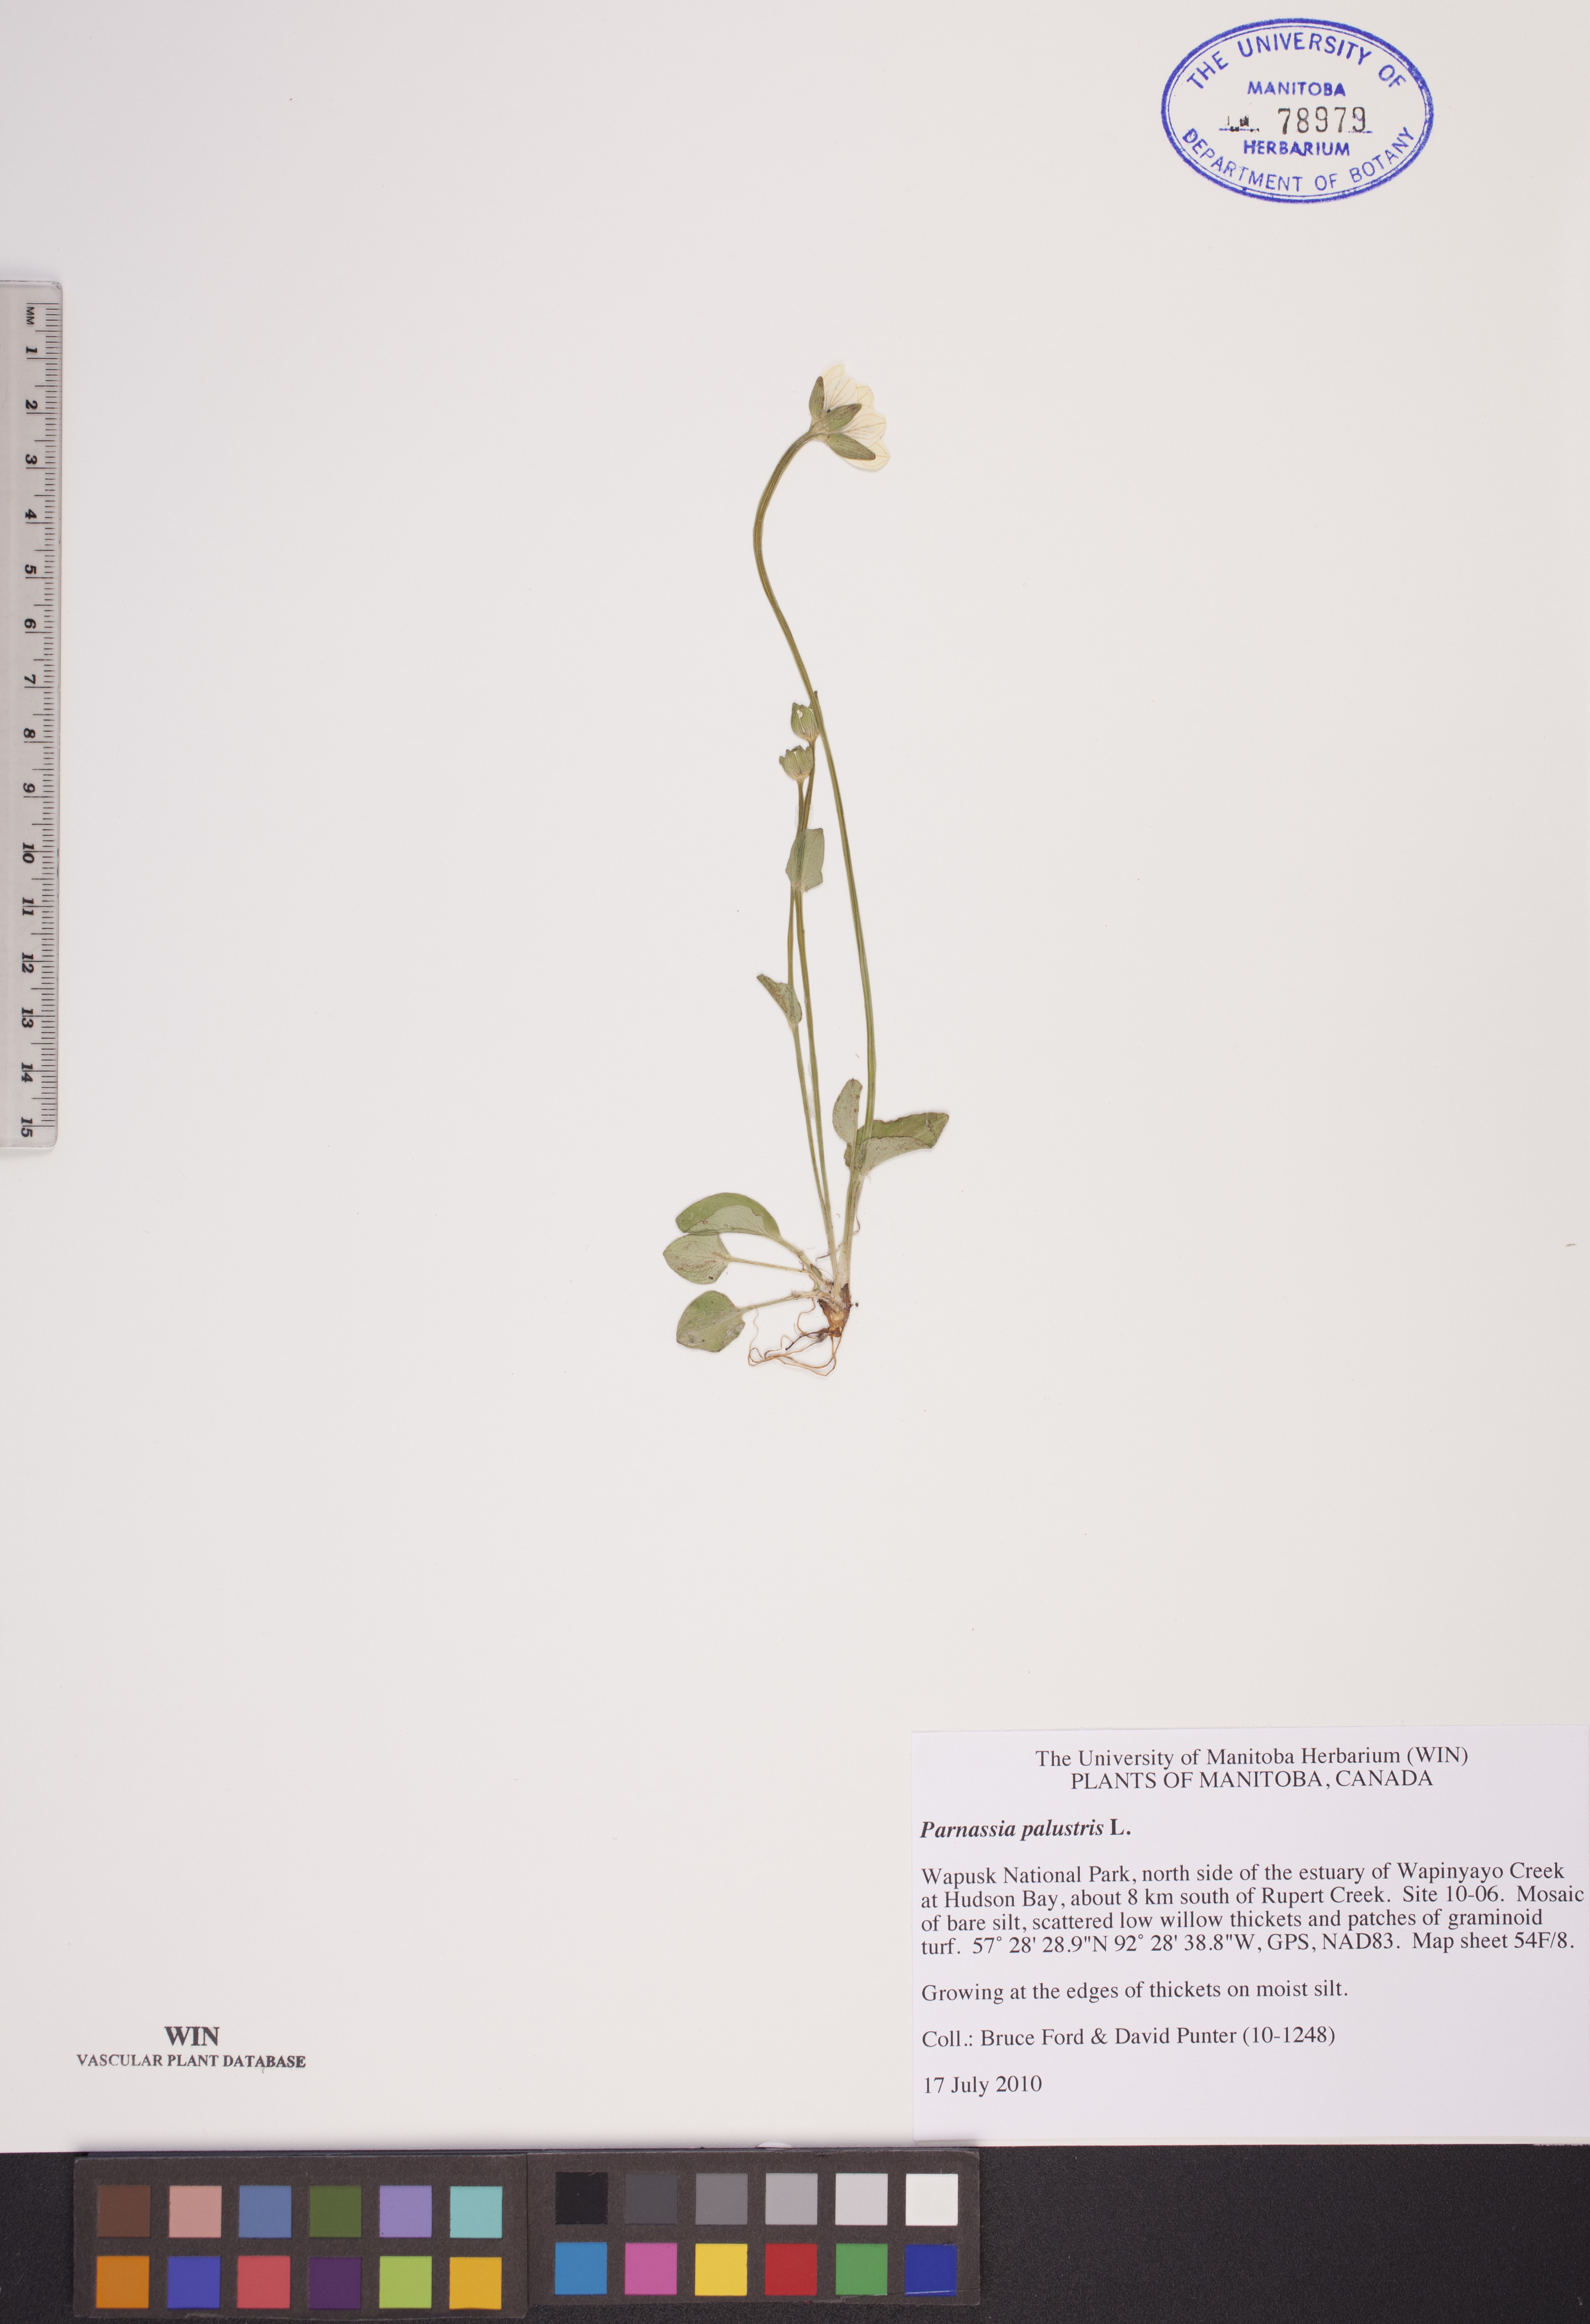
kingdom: Plantae
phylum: Tracheophyta
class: Magnoliopsida
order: Celastrales
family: Parnassiaceae
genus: Parnassia
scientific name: Parnassia palustris
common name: Grass-of-parnassus
